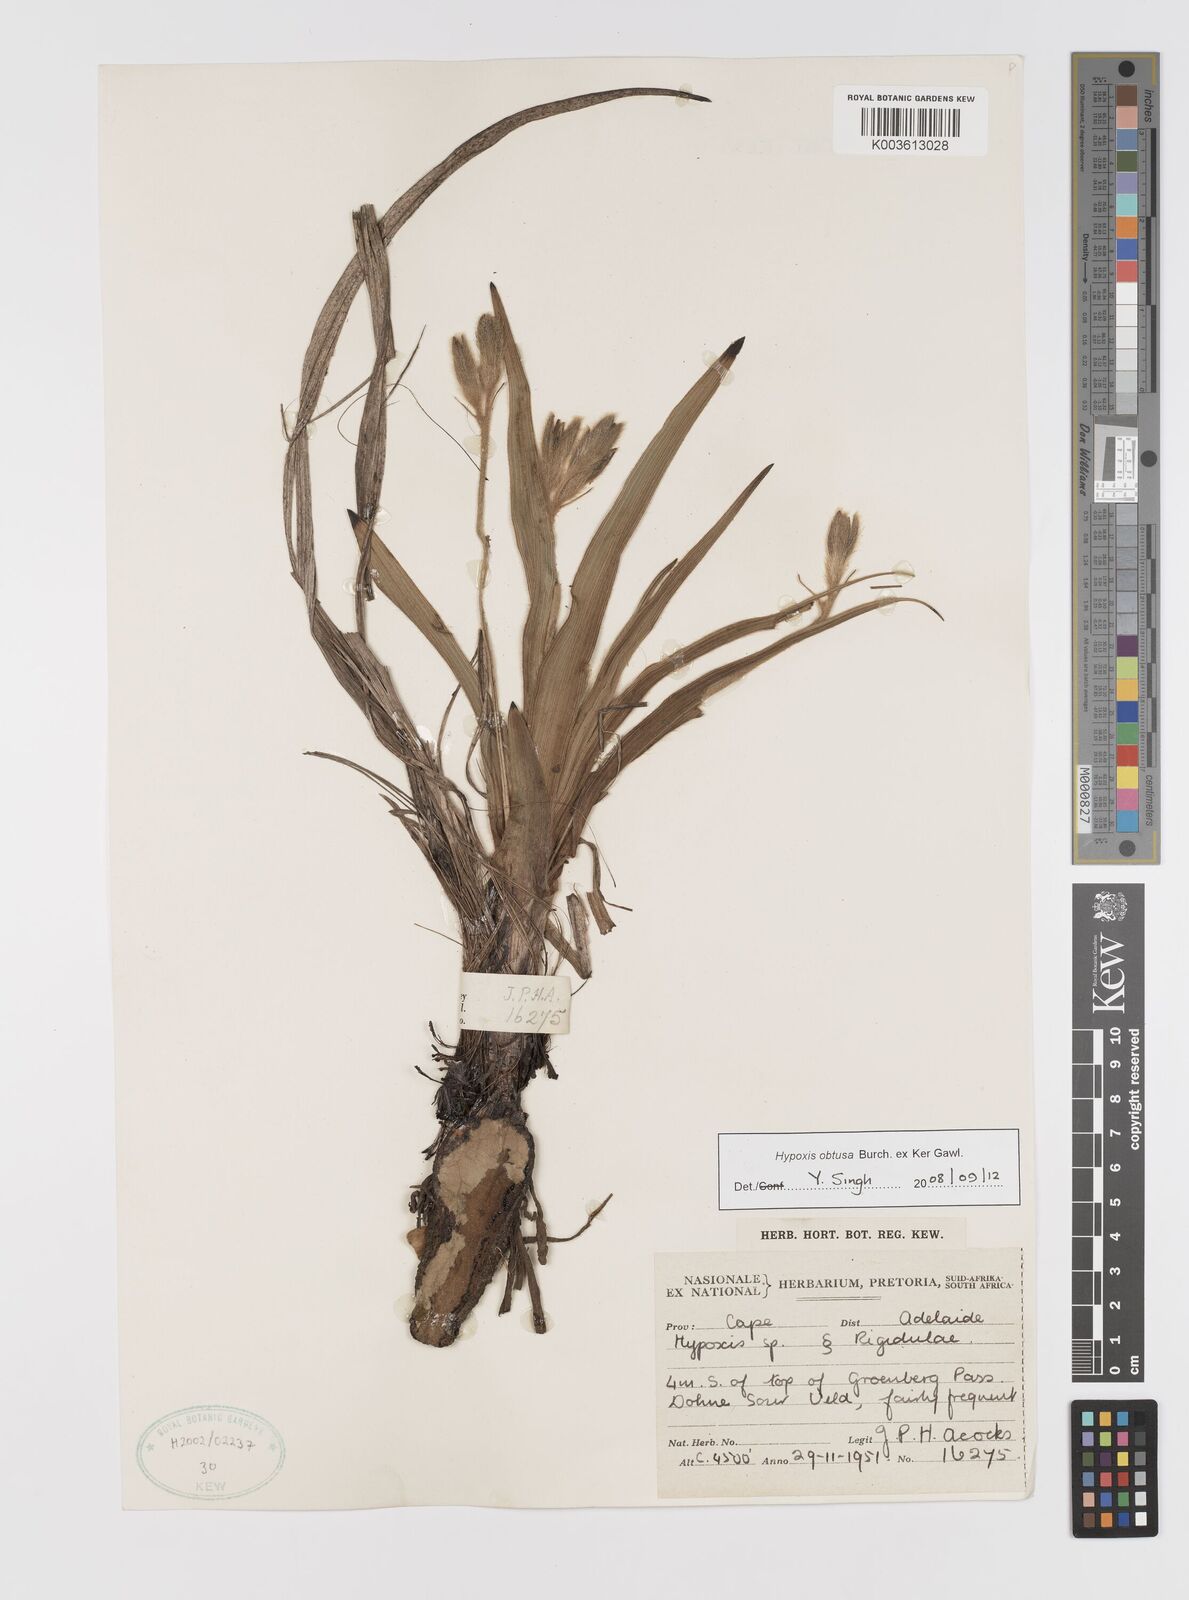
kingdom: Plantae
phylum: Tracheophyta
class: Liliopsida
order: Asparagales
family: Hypoxidaceae
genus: Hypoxis
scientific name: Hypoxis obtusa
